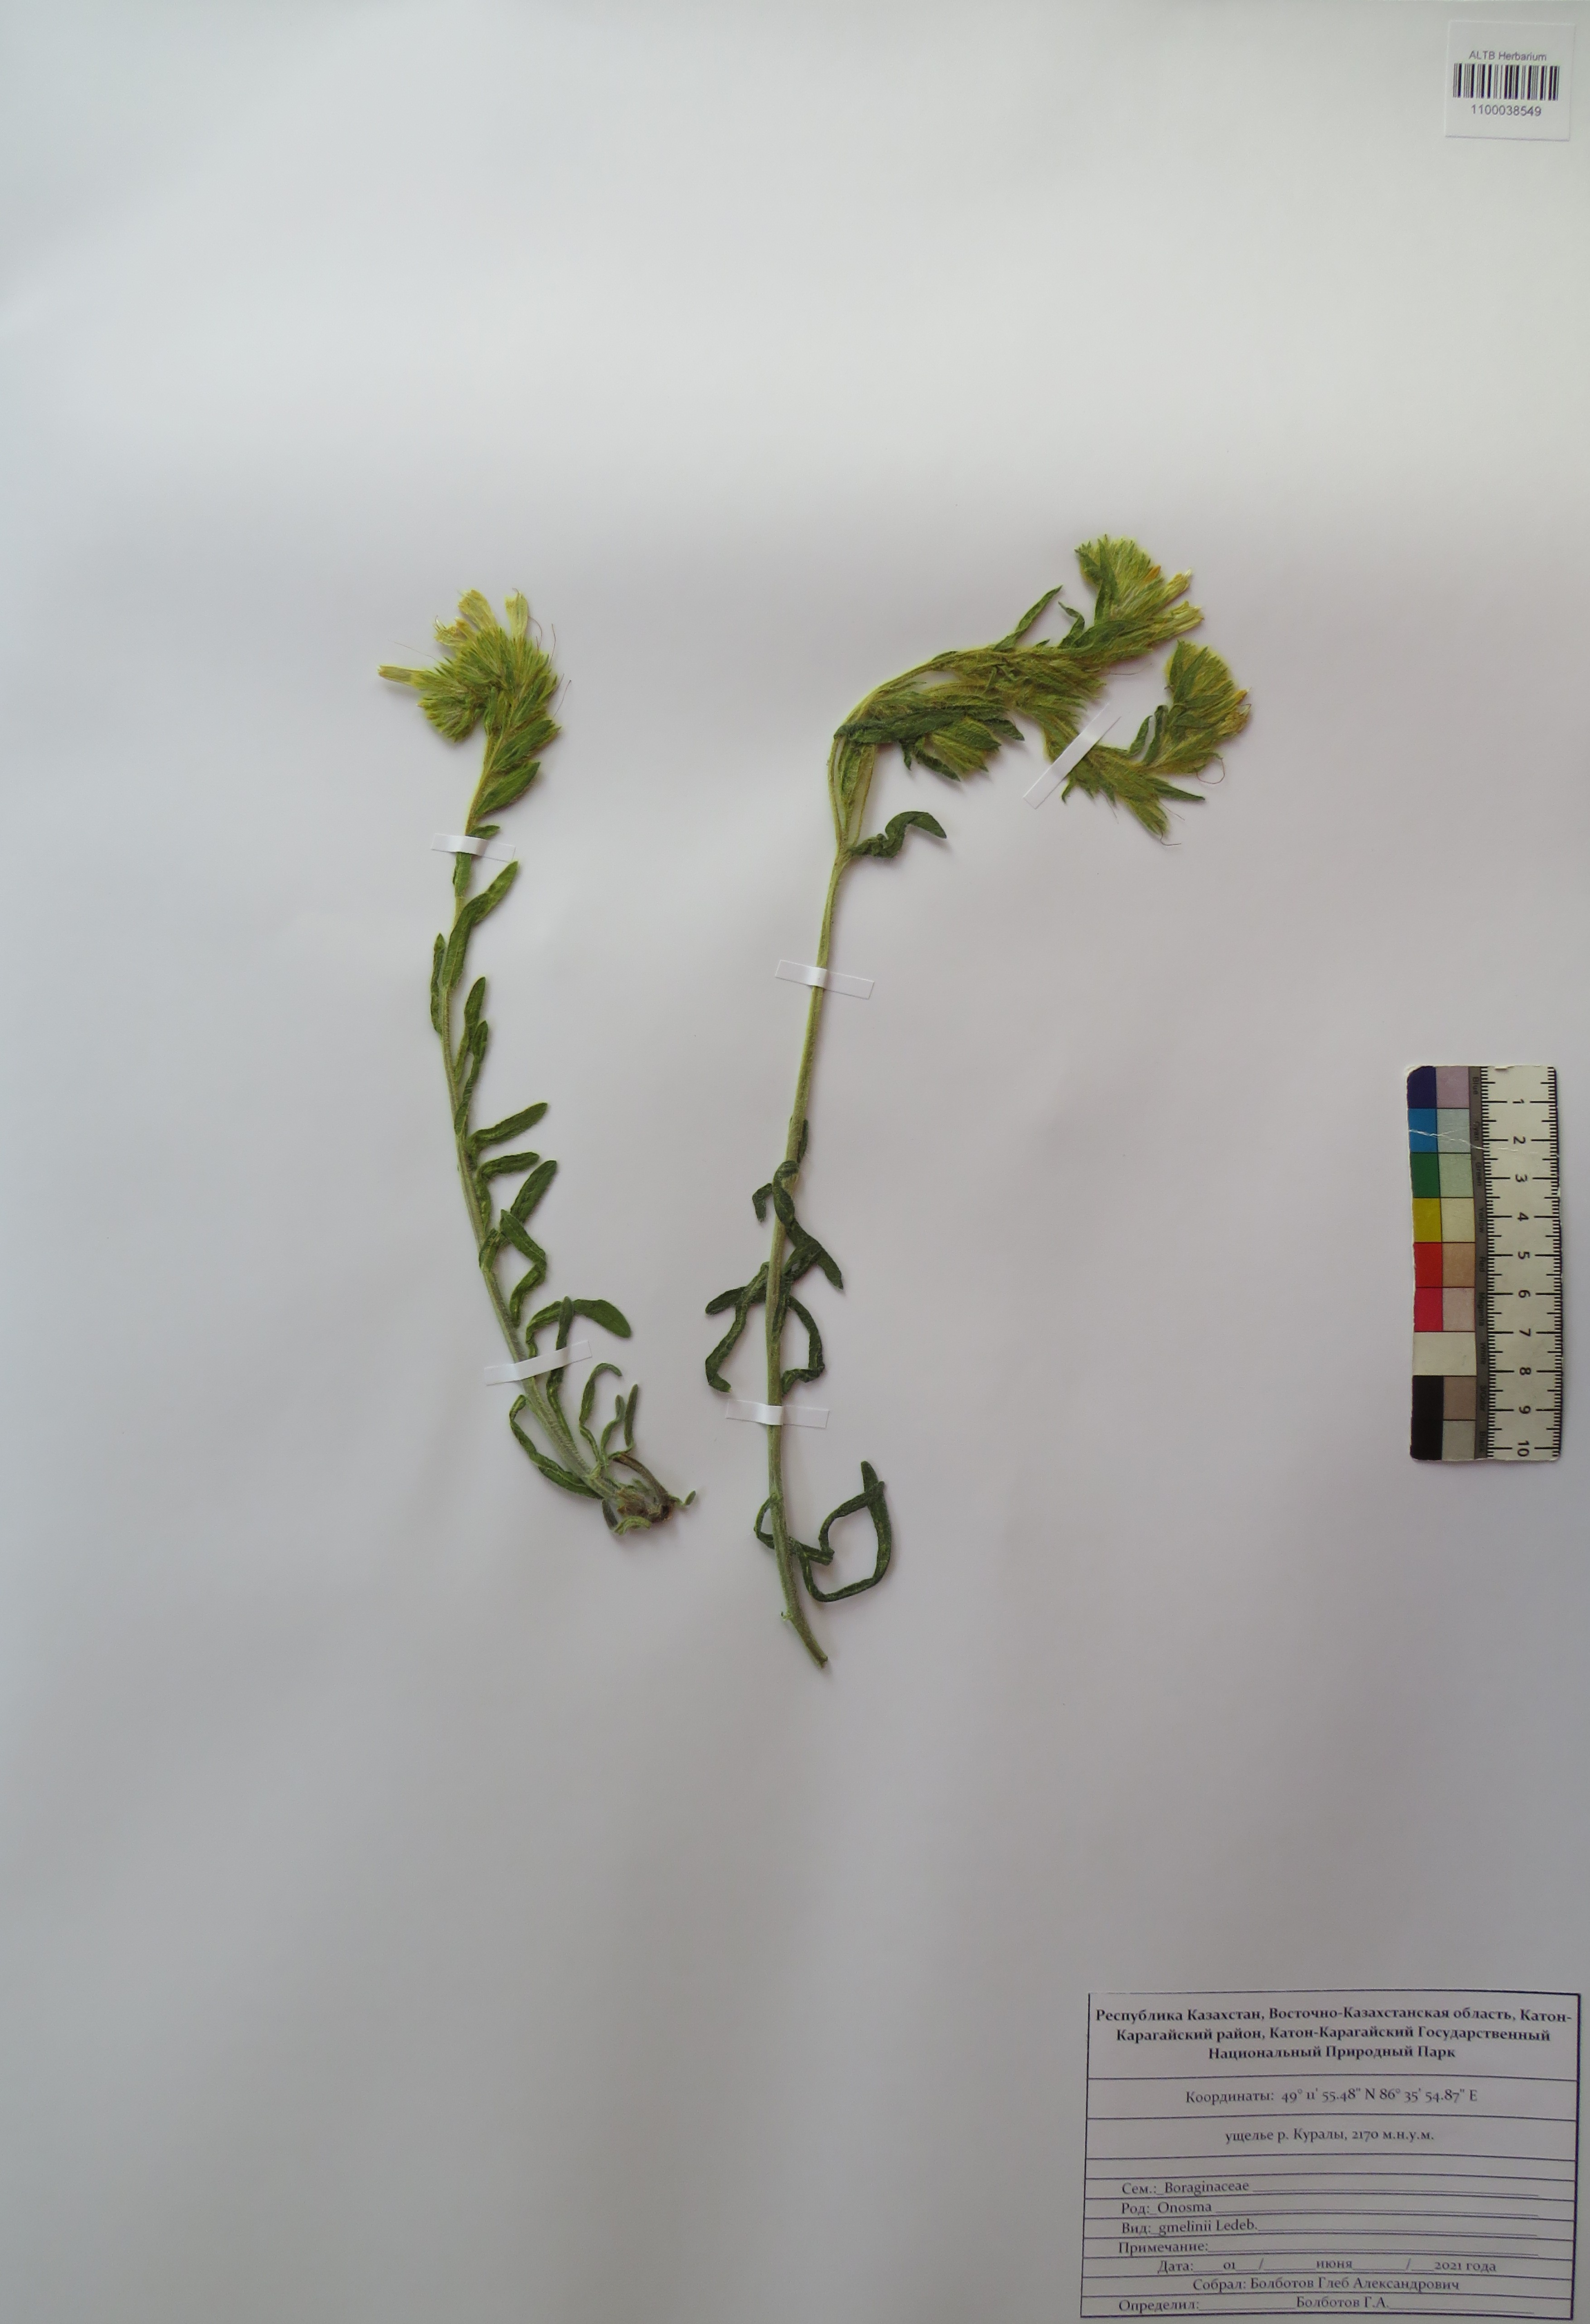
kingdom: Plantae
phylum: Tracheophyta
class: Magnoliopsida
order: Boraginales
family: Boraginaceae
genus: Onosma
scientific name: Onosma gmelinii
